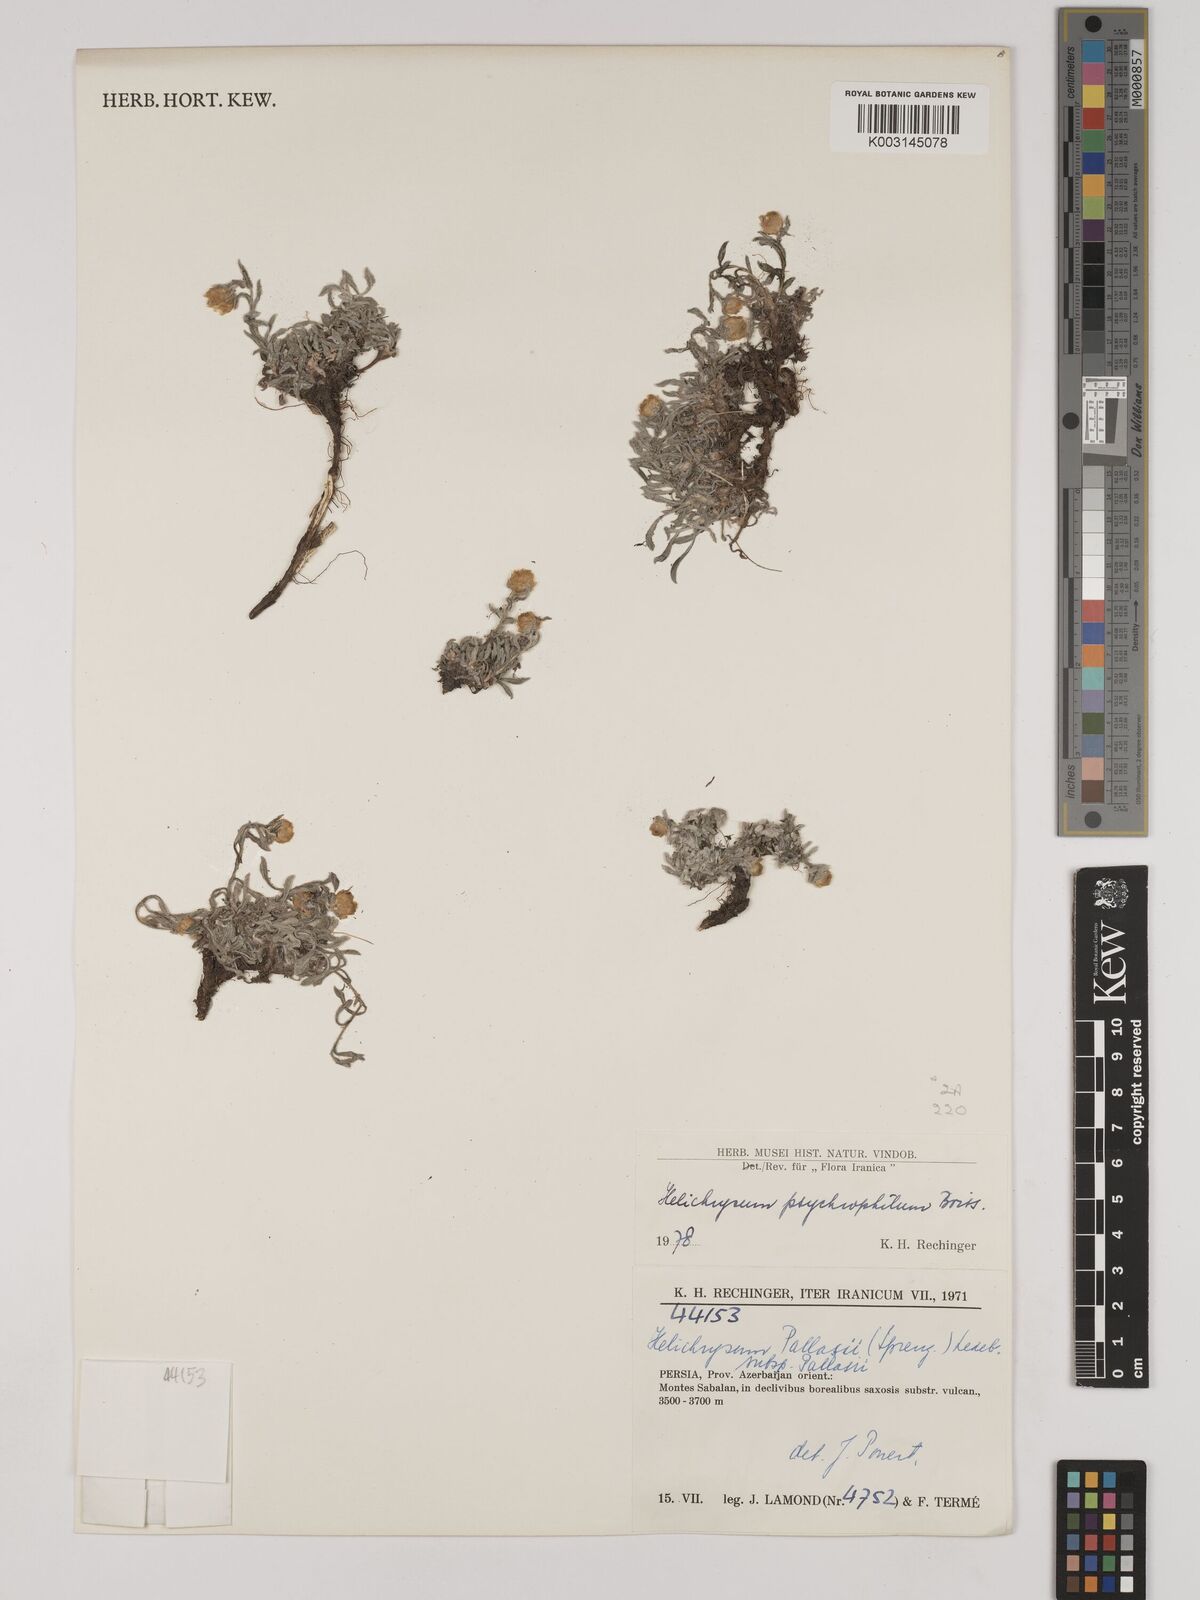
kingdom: Plantae
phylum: Tracheophyta
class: Magnoliopsida
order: Asterales
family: Asteraceae
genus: Helichrysum
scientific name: Helichrysum pallasii
